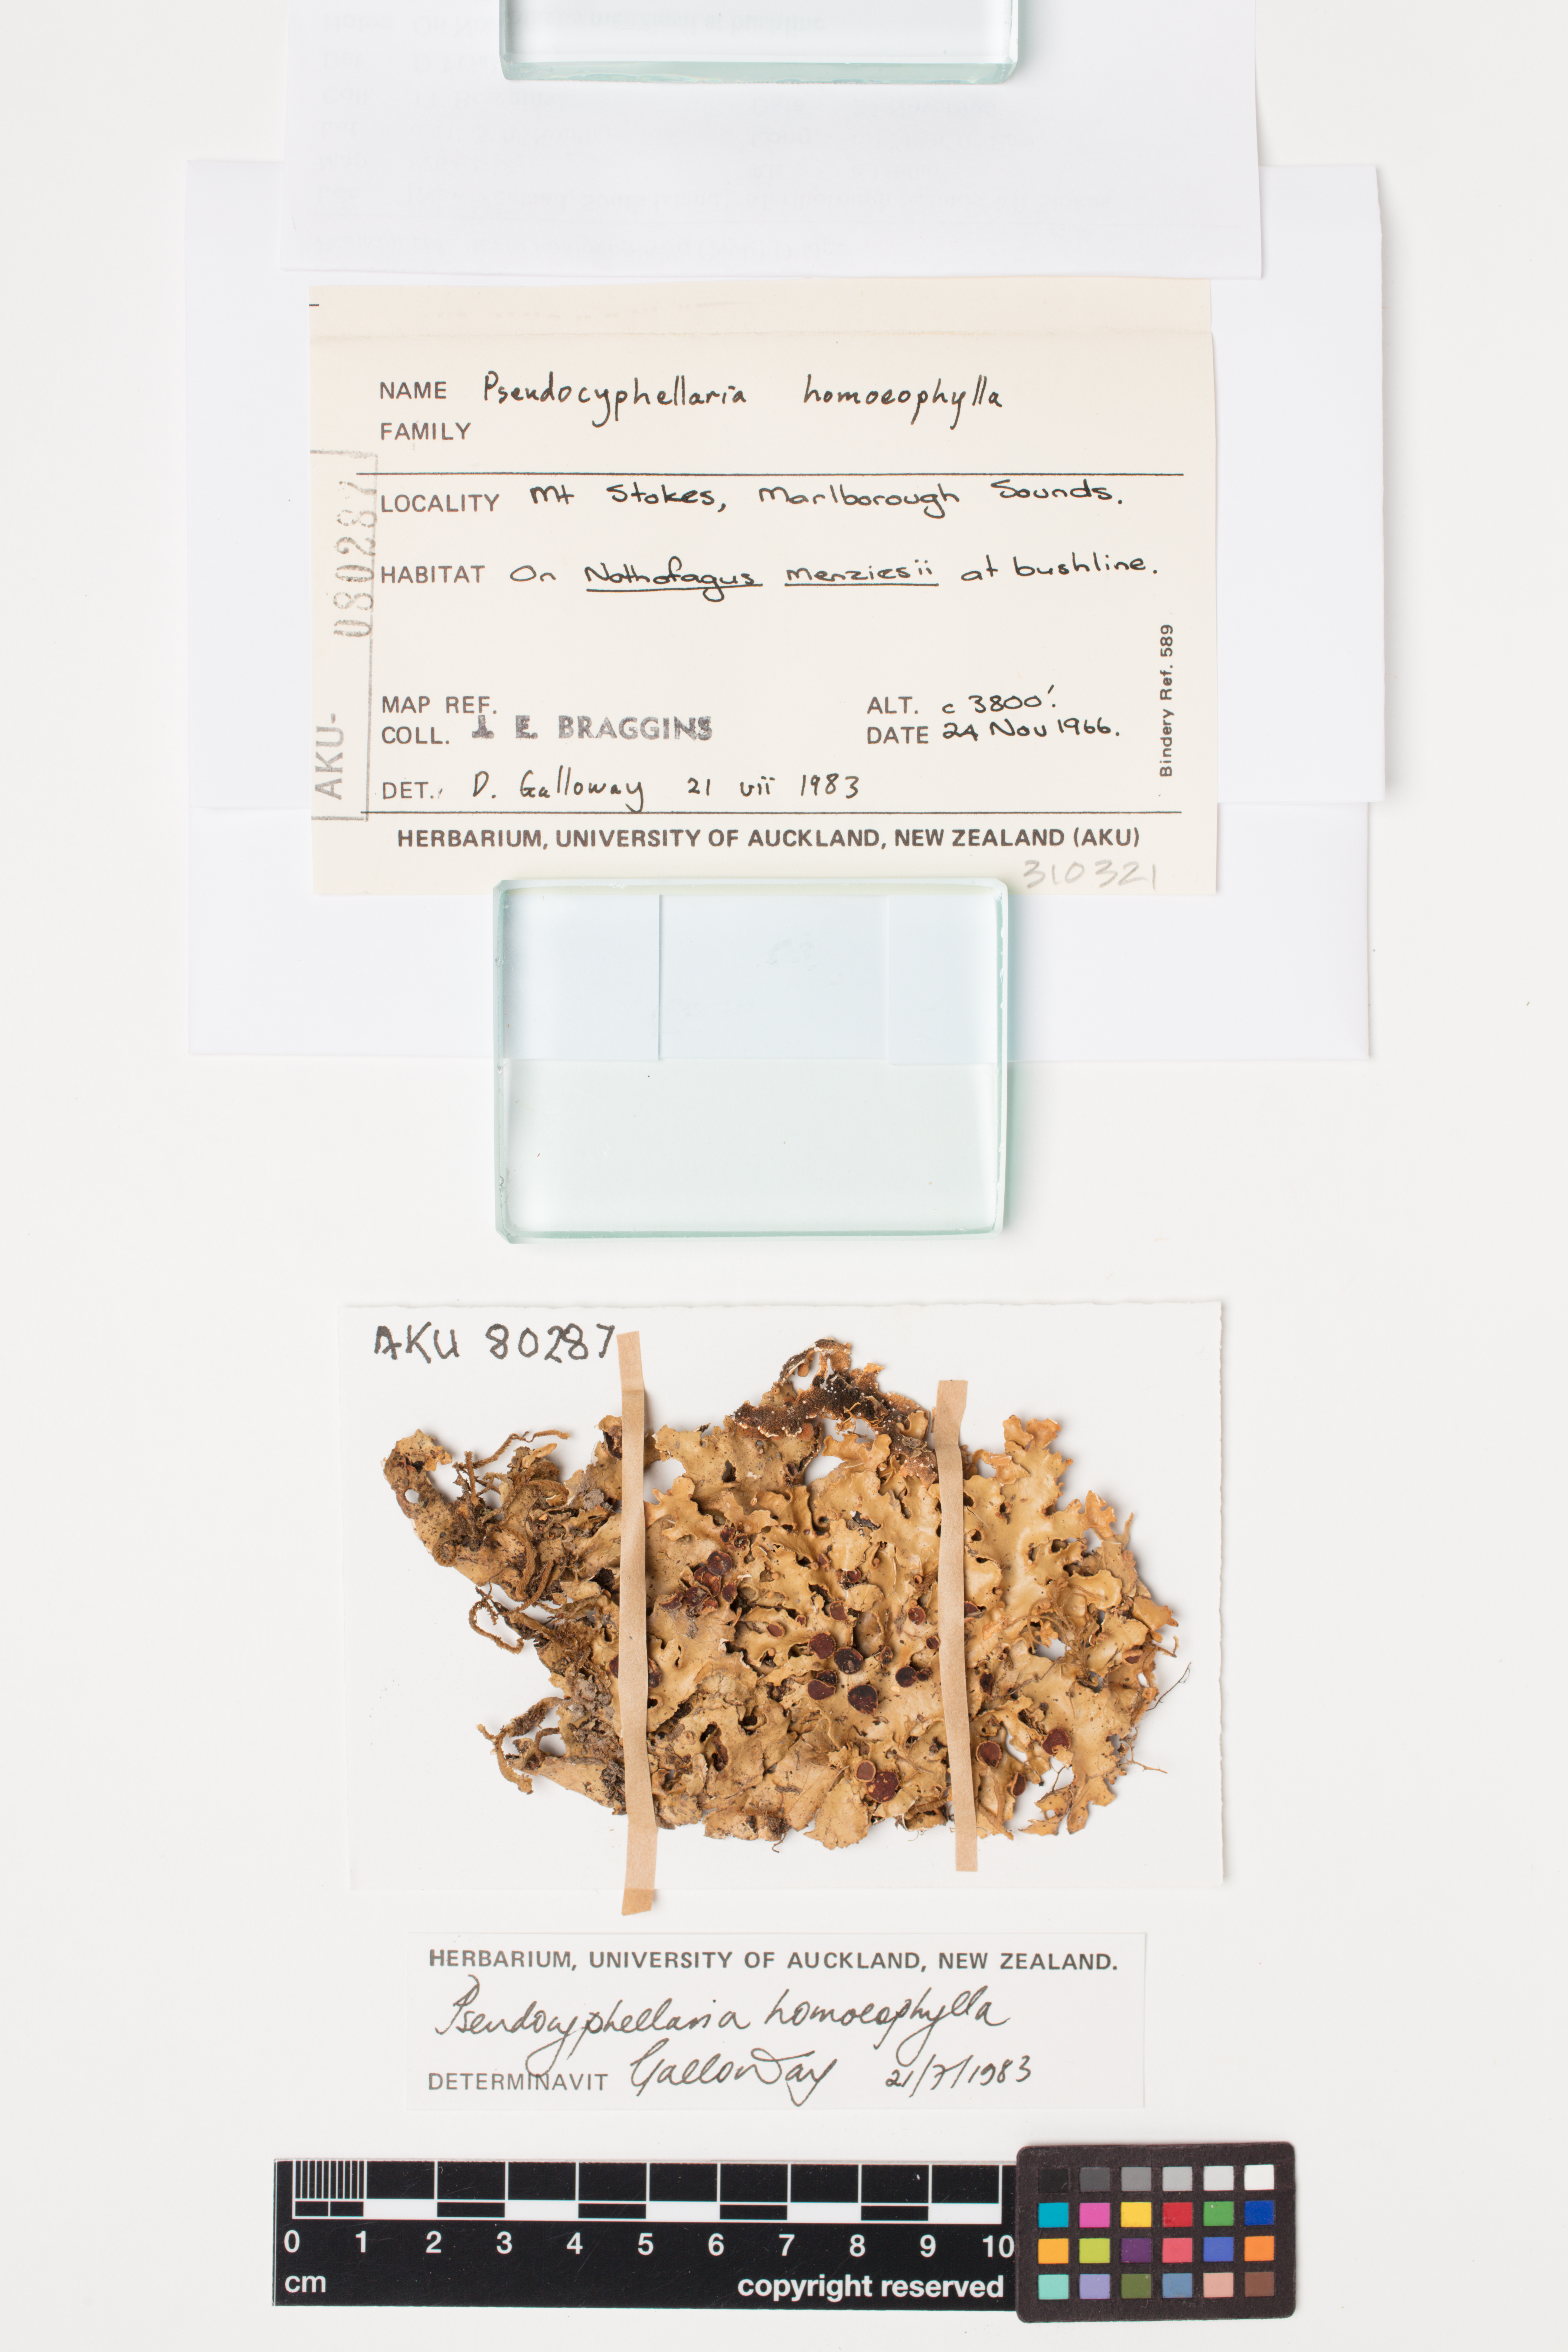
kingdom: Fungi
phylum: Ascomycota
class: Lecanoromycetes
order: Peltigerales
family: Lobariaceae
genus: Pseudocyphellaria
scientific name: Pseudocyphellaria homeophylla
